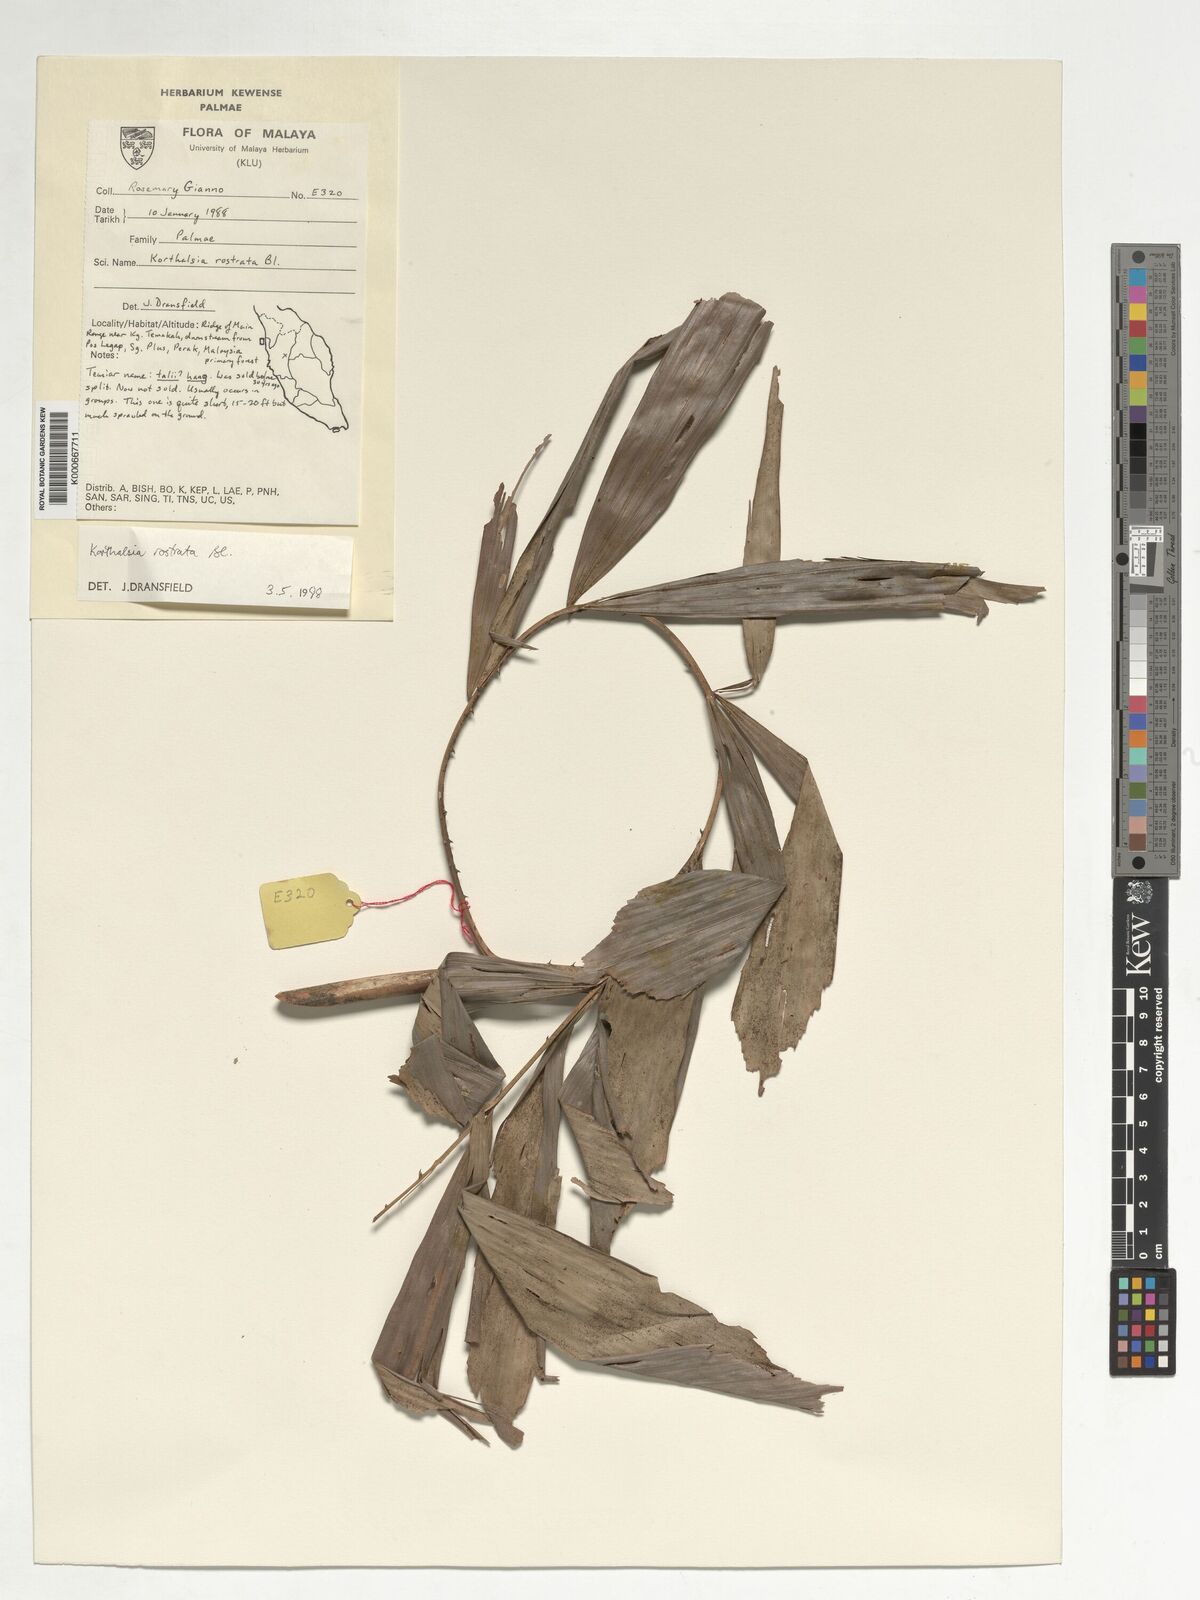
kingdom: Plantae
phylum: Tracheophyta
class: Liliopsida
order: Arecales
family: Arecaceae
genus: Korthalsia
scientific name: Korthalsia rostrata
